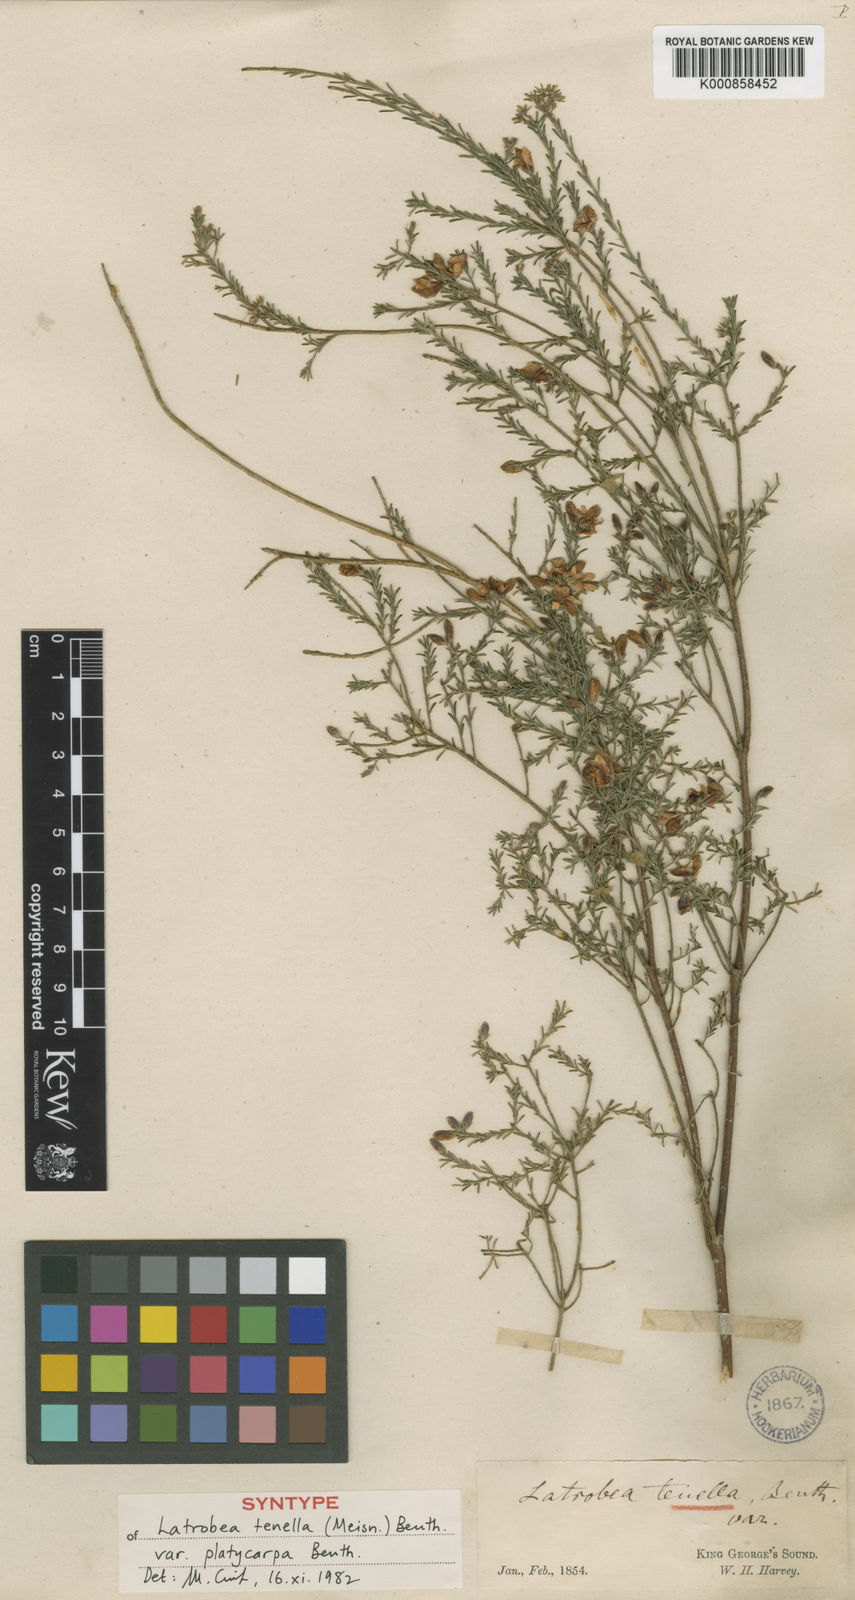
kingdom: Plantae
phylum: Tracheophyta
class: Magnoliopsida
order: Fabales
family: Fabaceae
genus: Latrobea
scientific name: Latrobea tenella
